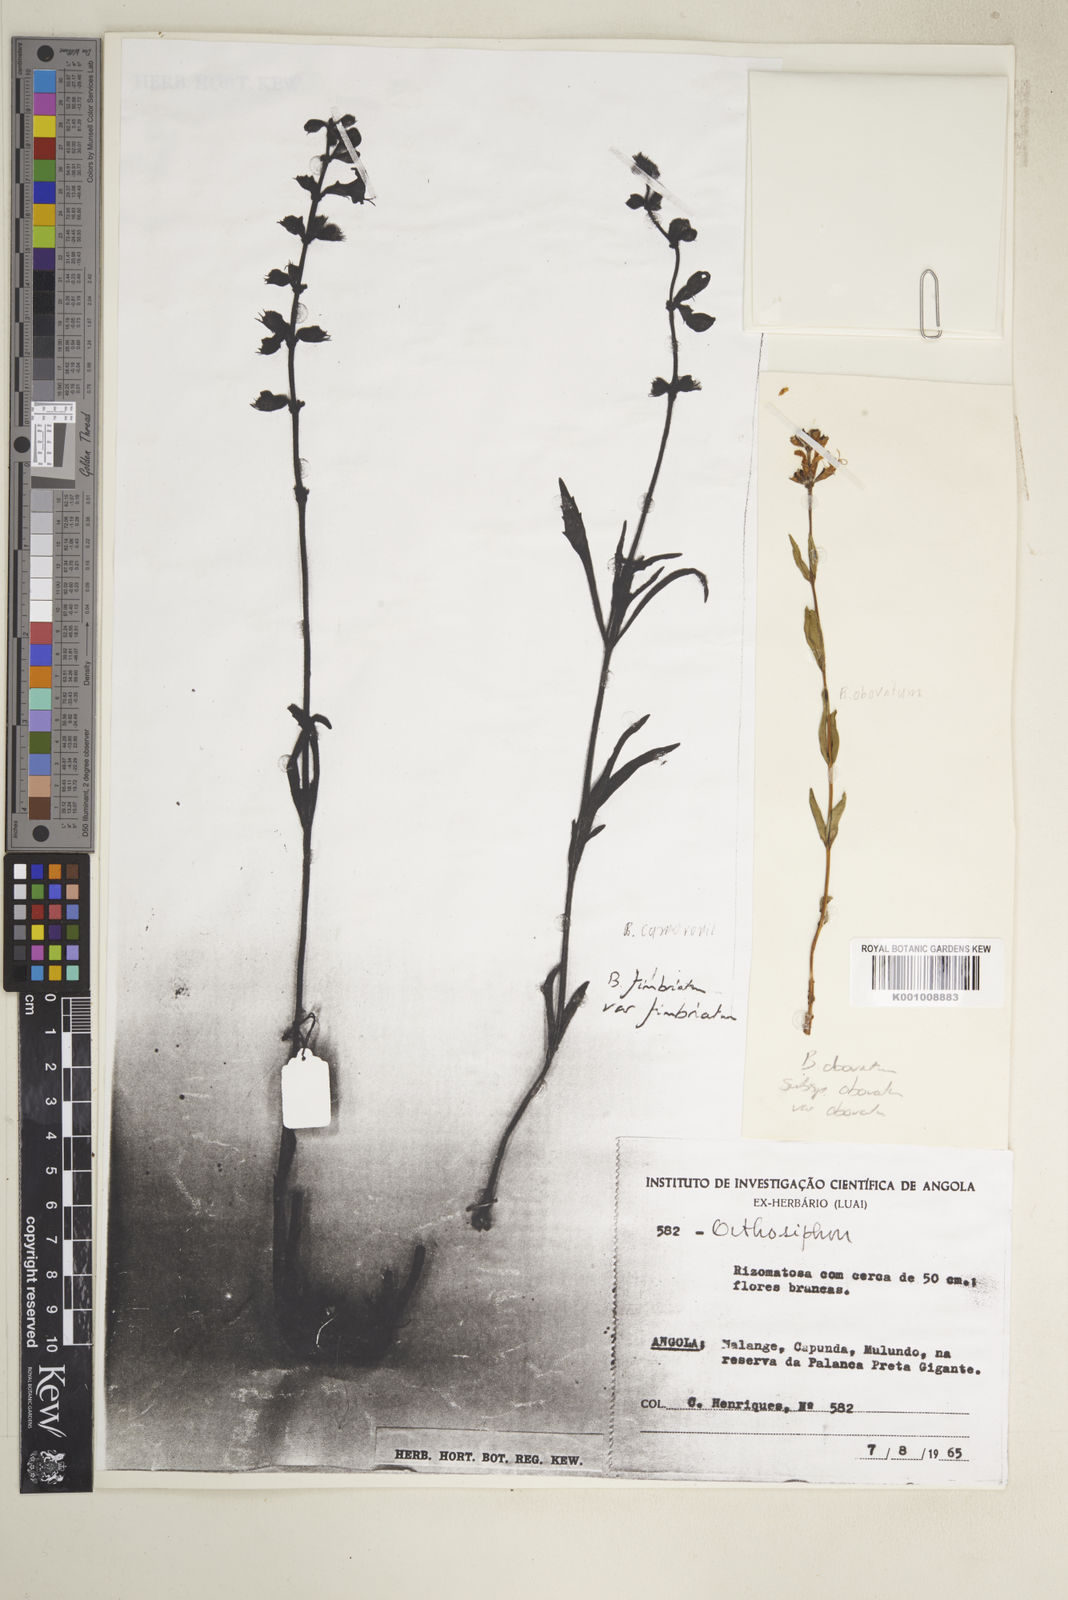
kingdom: Plantae
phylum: Tracheophyta
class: Magnoliopsida
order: Lamiales
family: Lamiaceae
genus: Ocimum
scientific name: Ocimum obovatum
